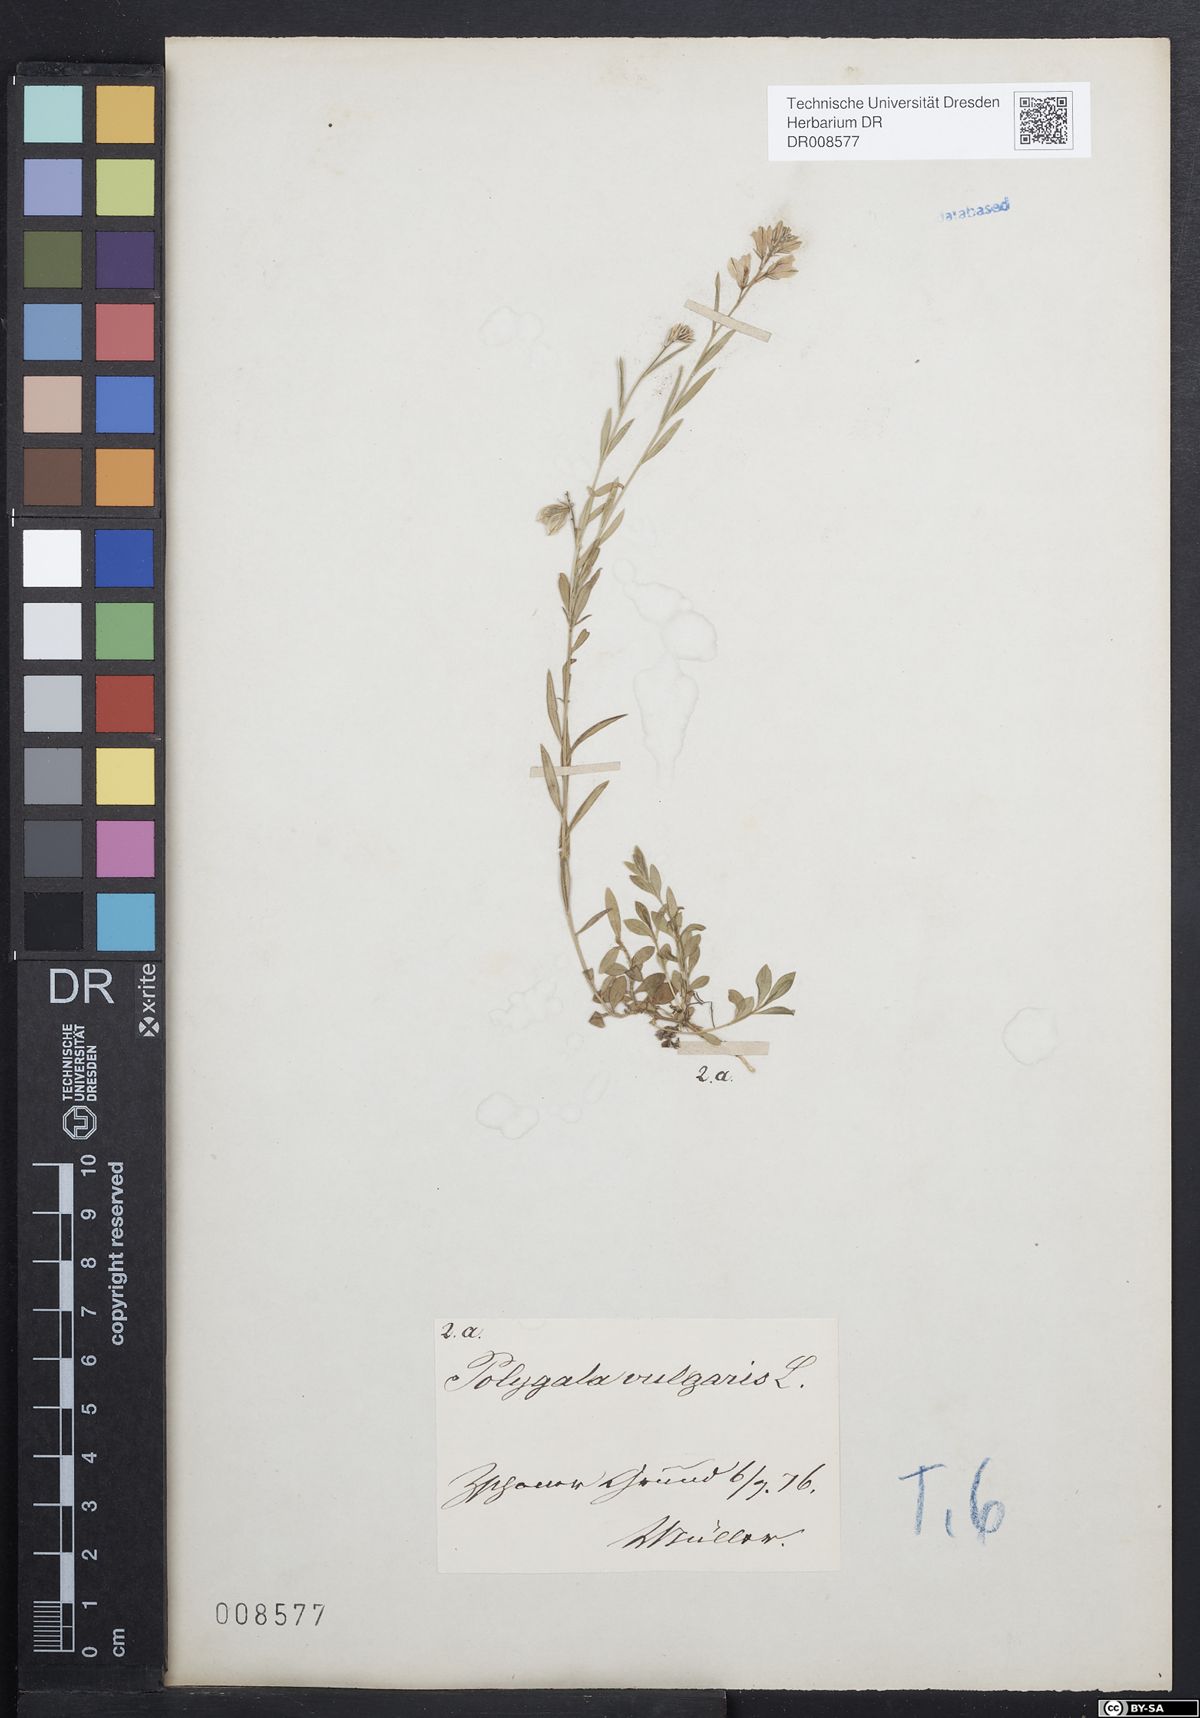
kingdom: Plantae
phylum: Tracheophyta
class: Magnoliopsida
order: Fabales
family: Polygalaceae
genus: Polygala
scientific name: Polygala vulgaris
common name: Common milkwort
